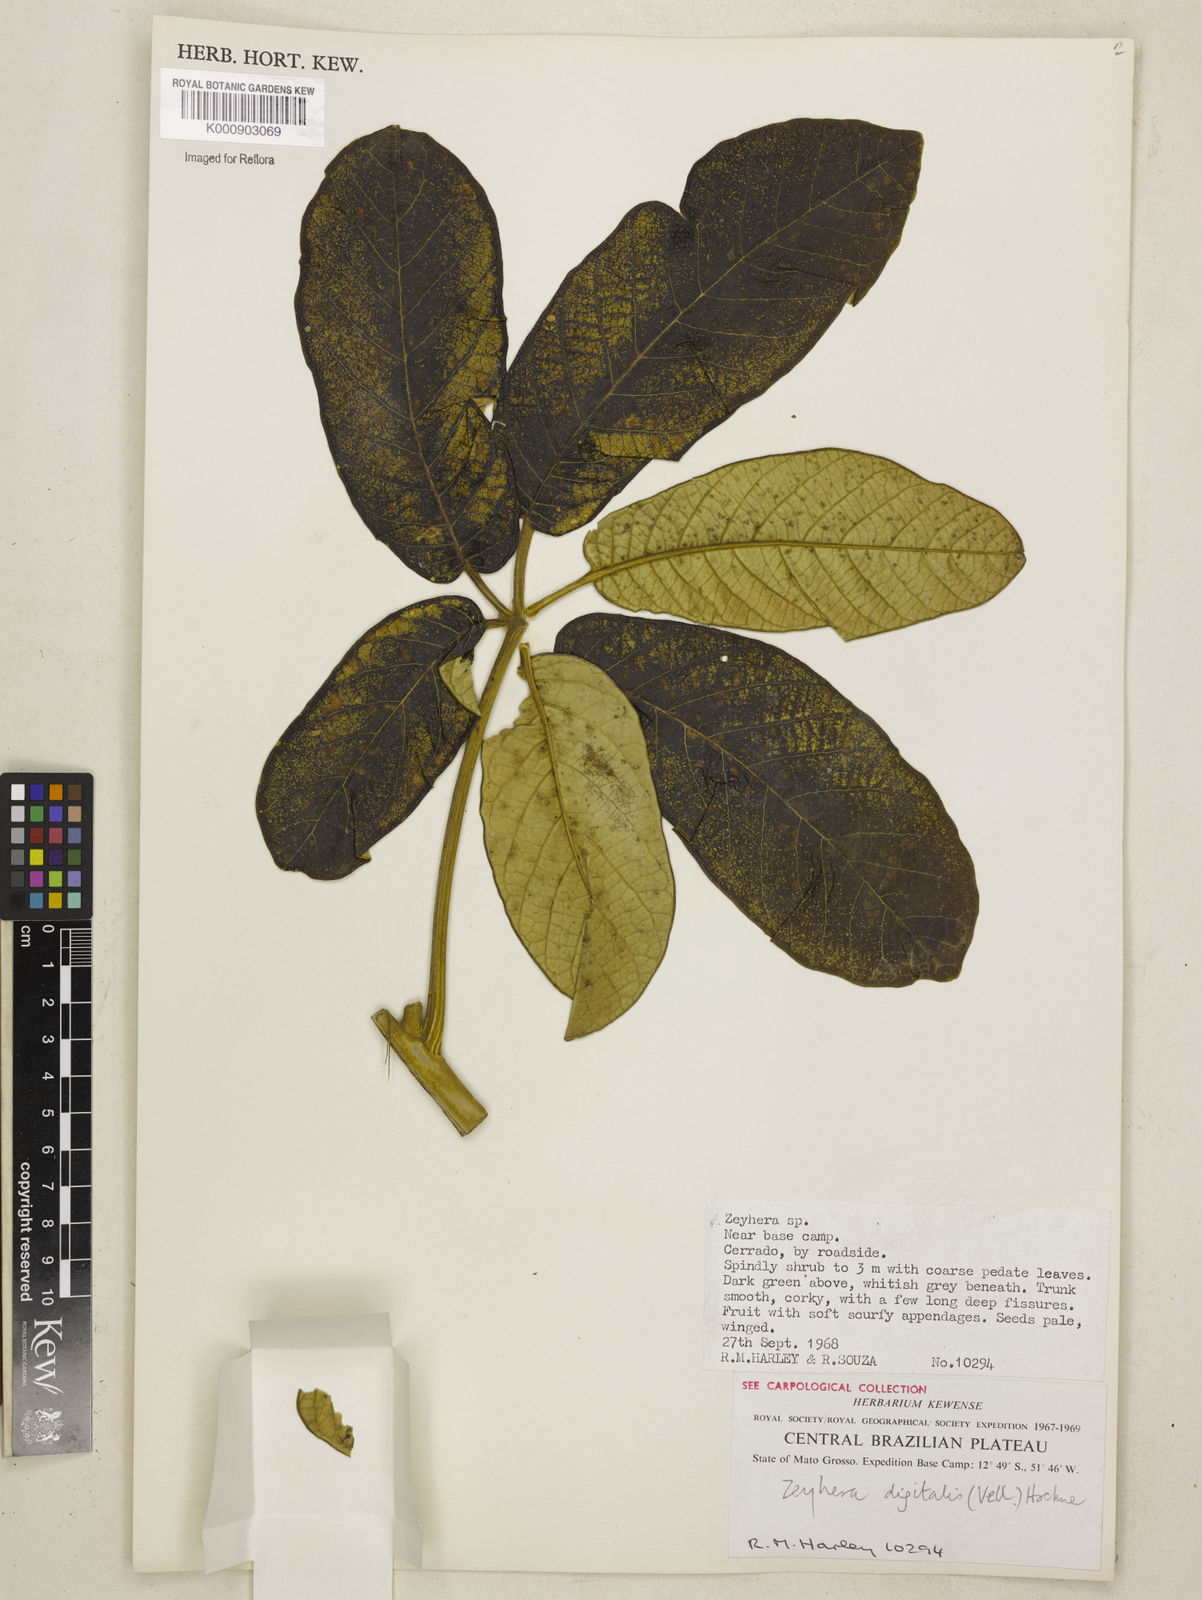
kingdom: Plantae
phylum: Tracheophyta
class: Magnoliopsida
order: Lamiales
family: Bignoniaceae
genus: Zeyheria
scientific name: Zeyheria
